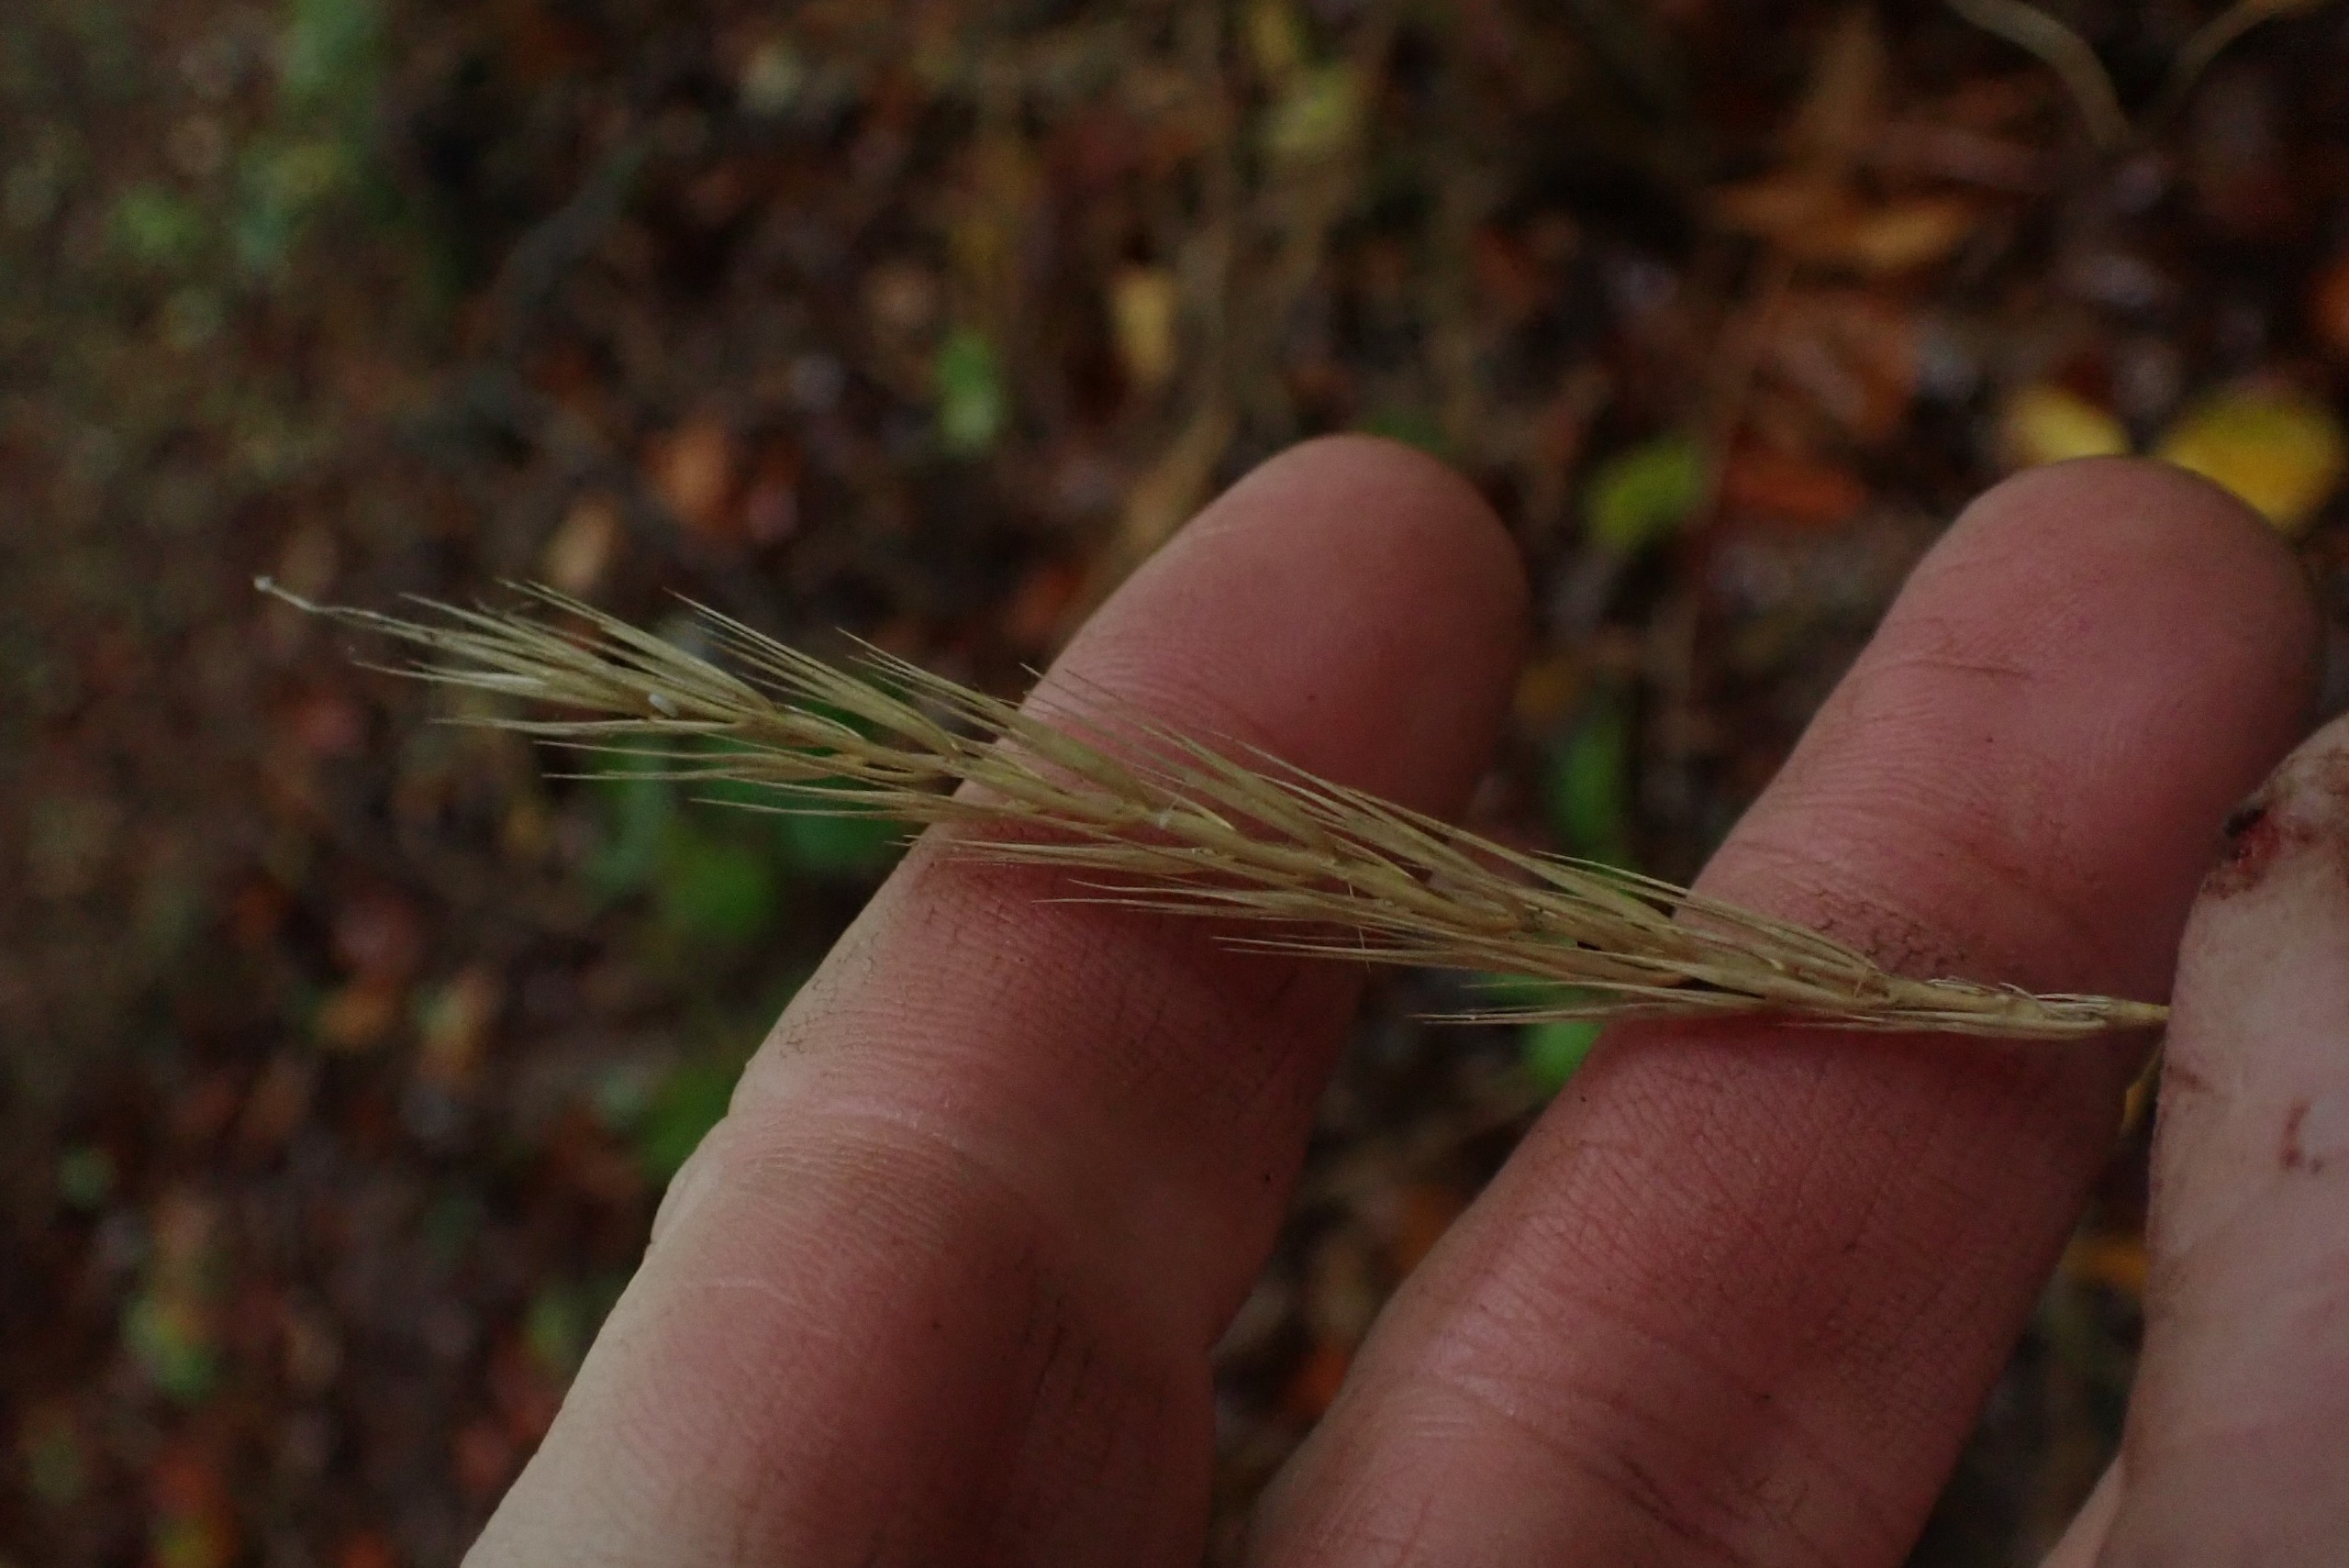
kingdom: Plantae
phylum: Tracheophyta
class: Liliopsida
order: Poales
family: Poaceae
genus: Hordelymus
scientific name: Hordelymus europaeus
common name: Skovbyg
